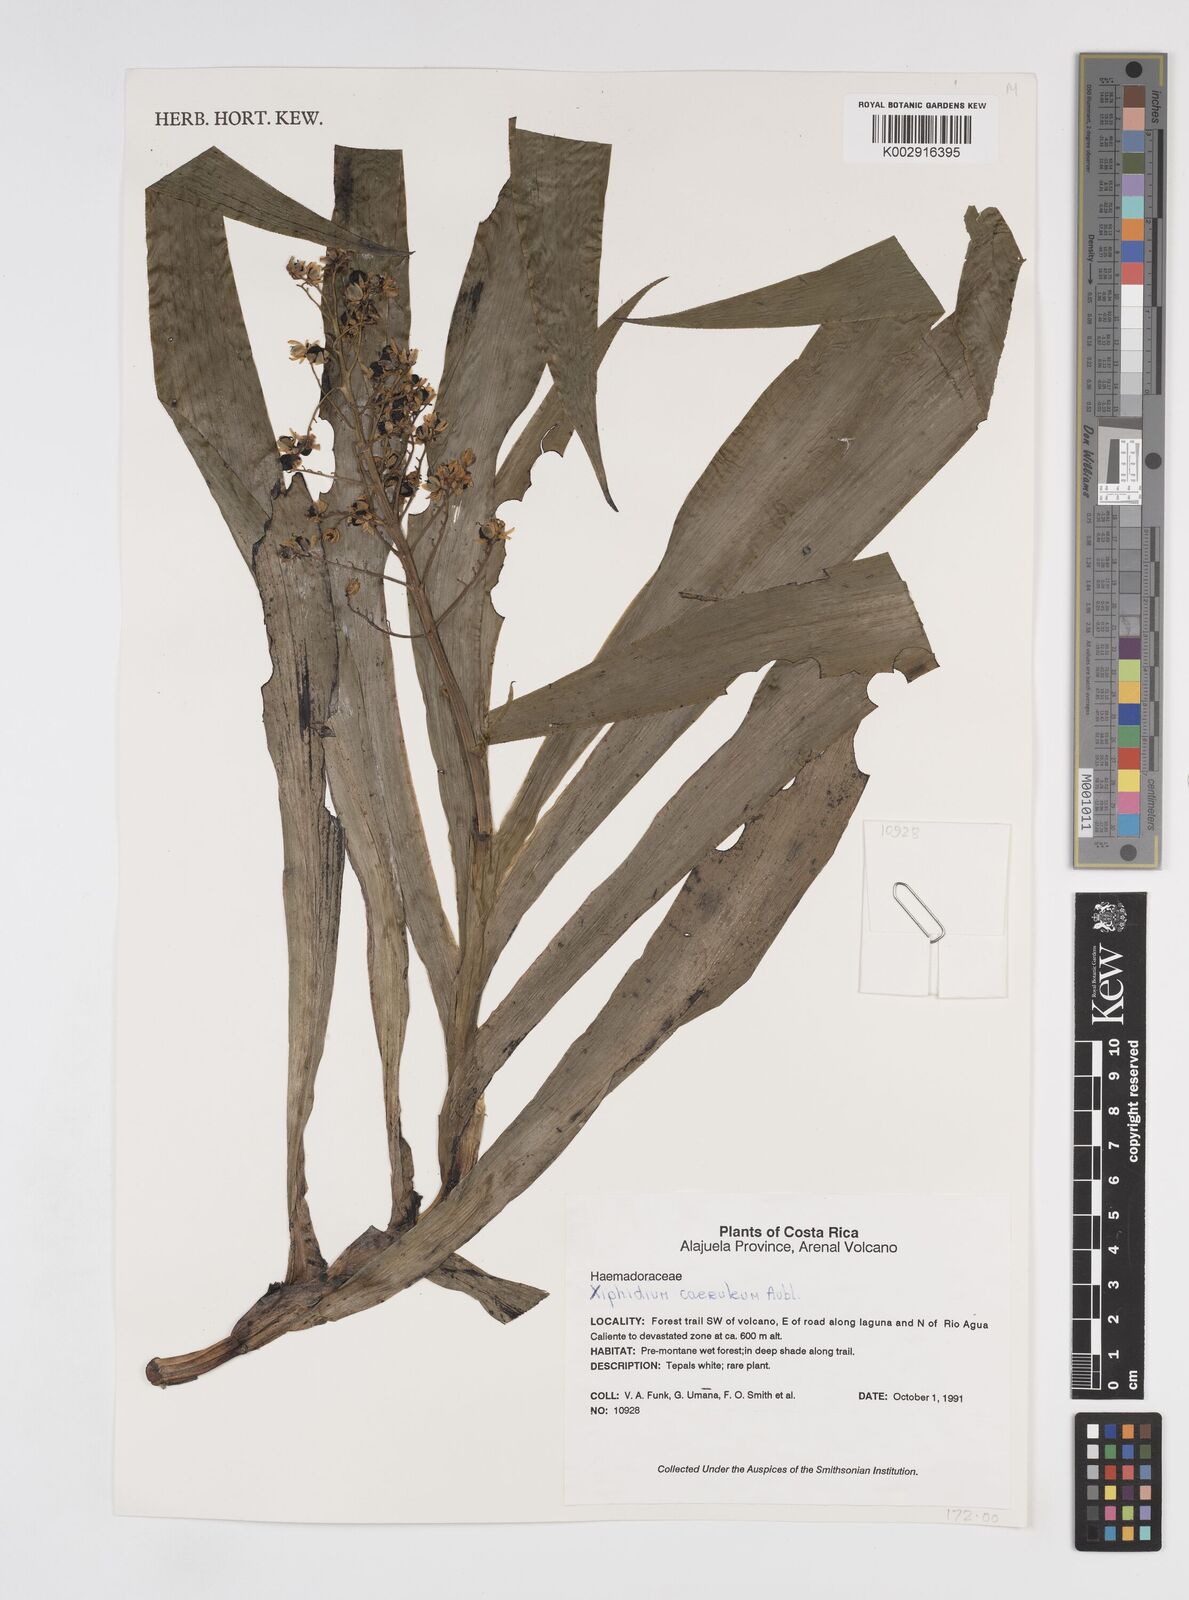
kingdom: Plantae
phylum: Tracheophyta
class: Liliopsida
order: Commelinales
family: Haemodoraceae
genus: Xiphidium
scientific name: Xiphidium caeruleum
